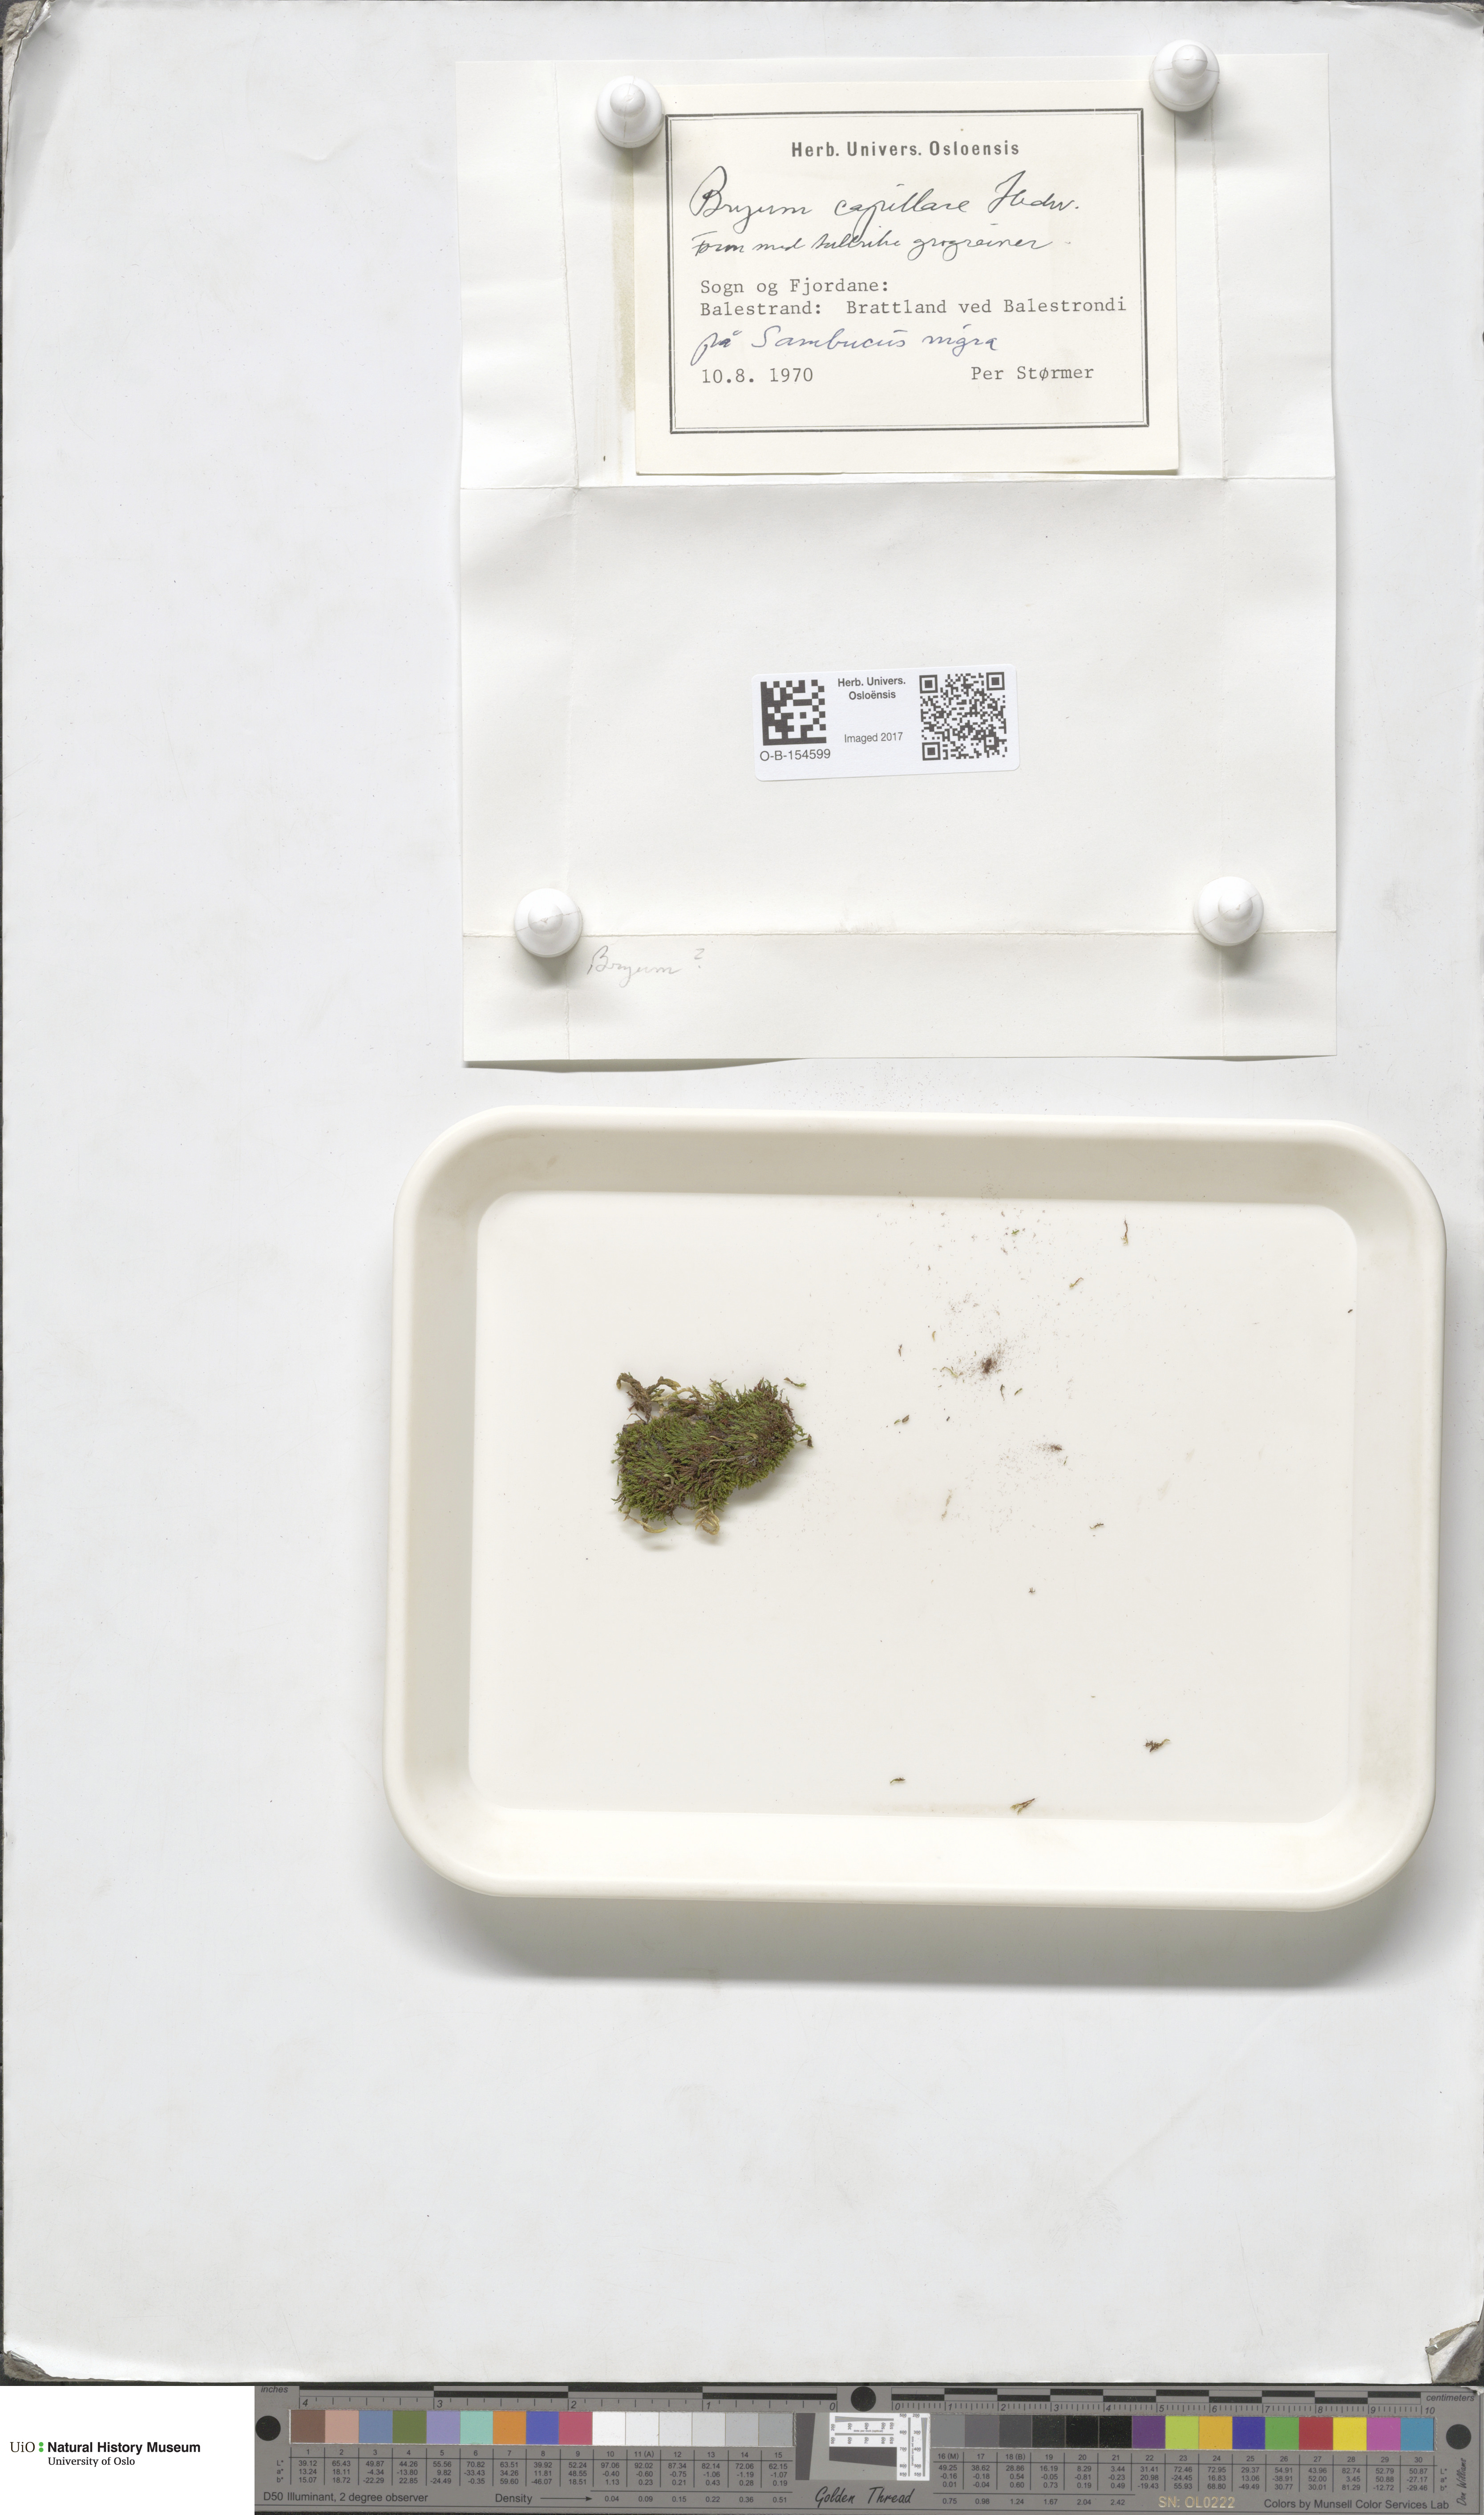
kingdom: Plantae
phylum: Bryophyta
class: Bryopsida
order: Bryales
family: Bryaceae
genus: Rosulabryum
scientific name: Rosulabryum capillare
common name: Capillary thread-moss
